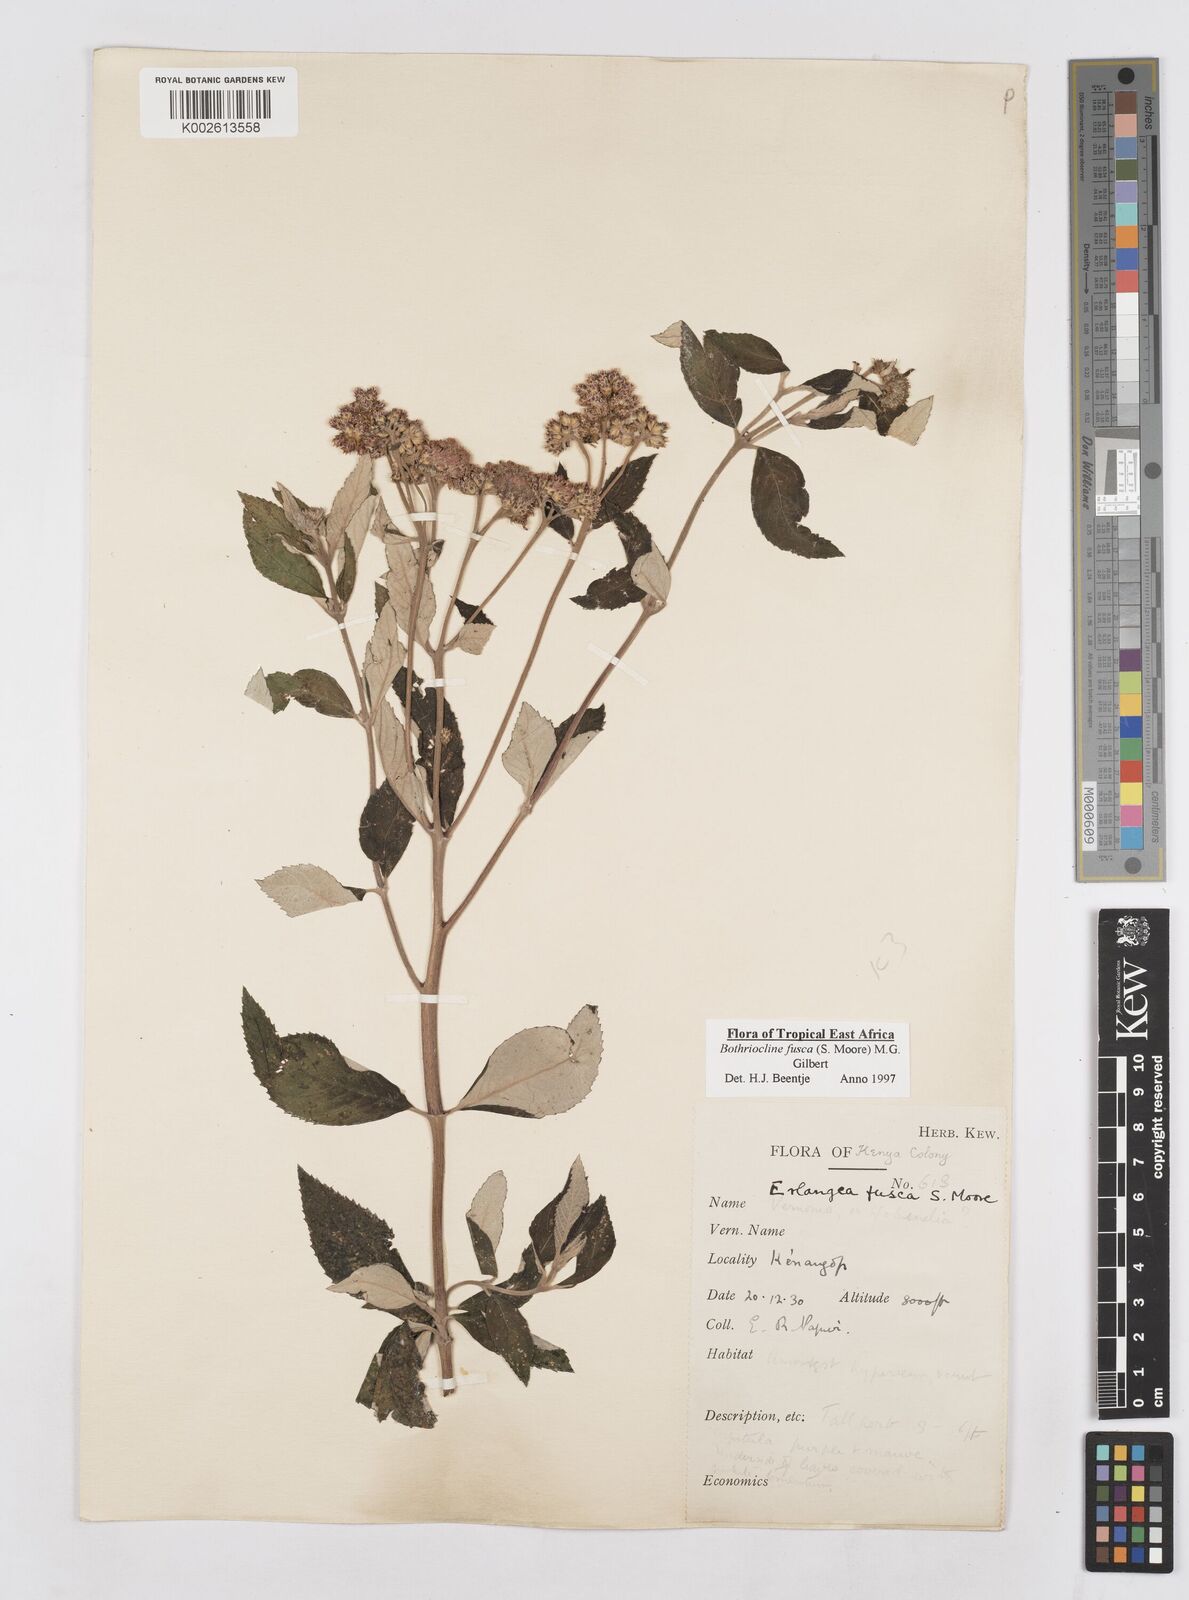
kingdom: Plantae
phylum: Tracheophyta
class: Magnoliopsida
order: Asterales
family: Asteraceae
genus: Bothriocline
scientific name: Bothriocline fusca
